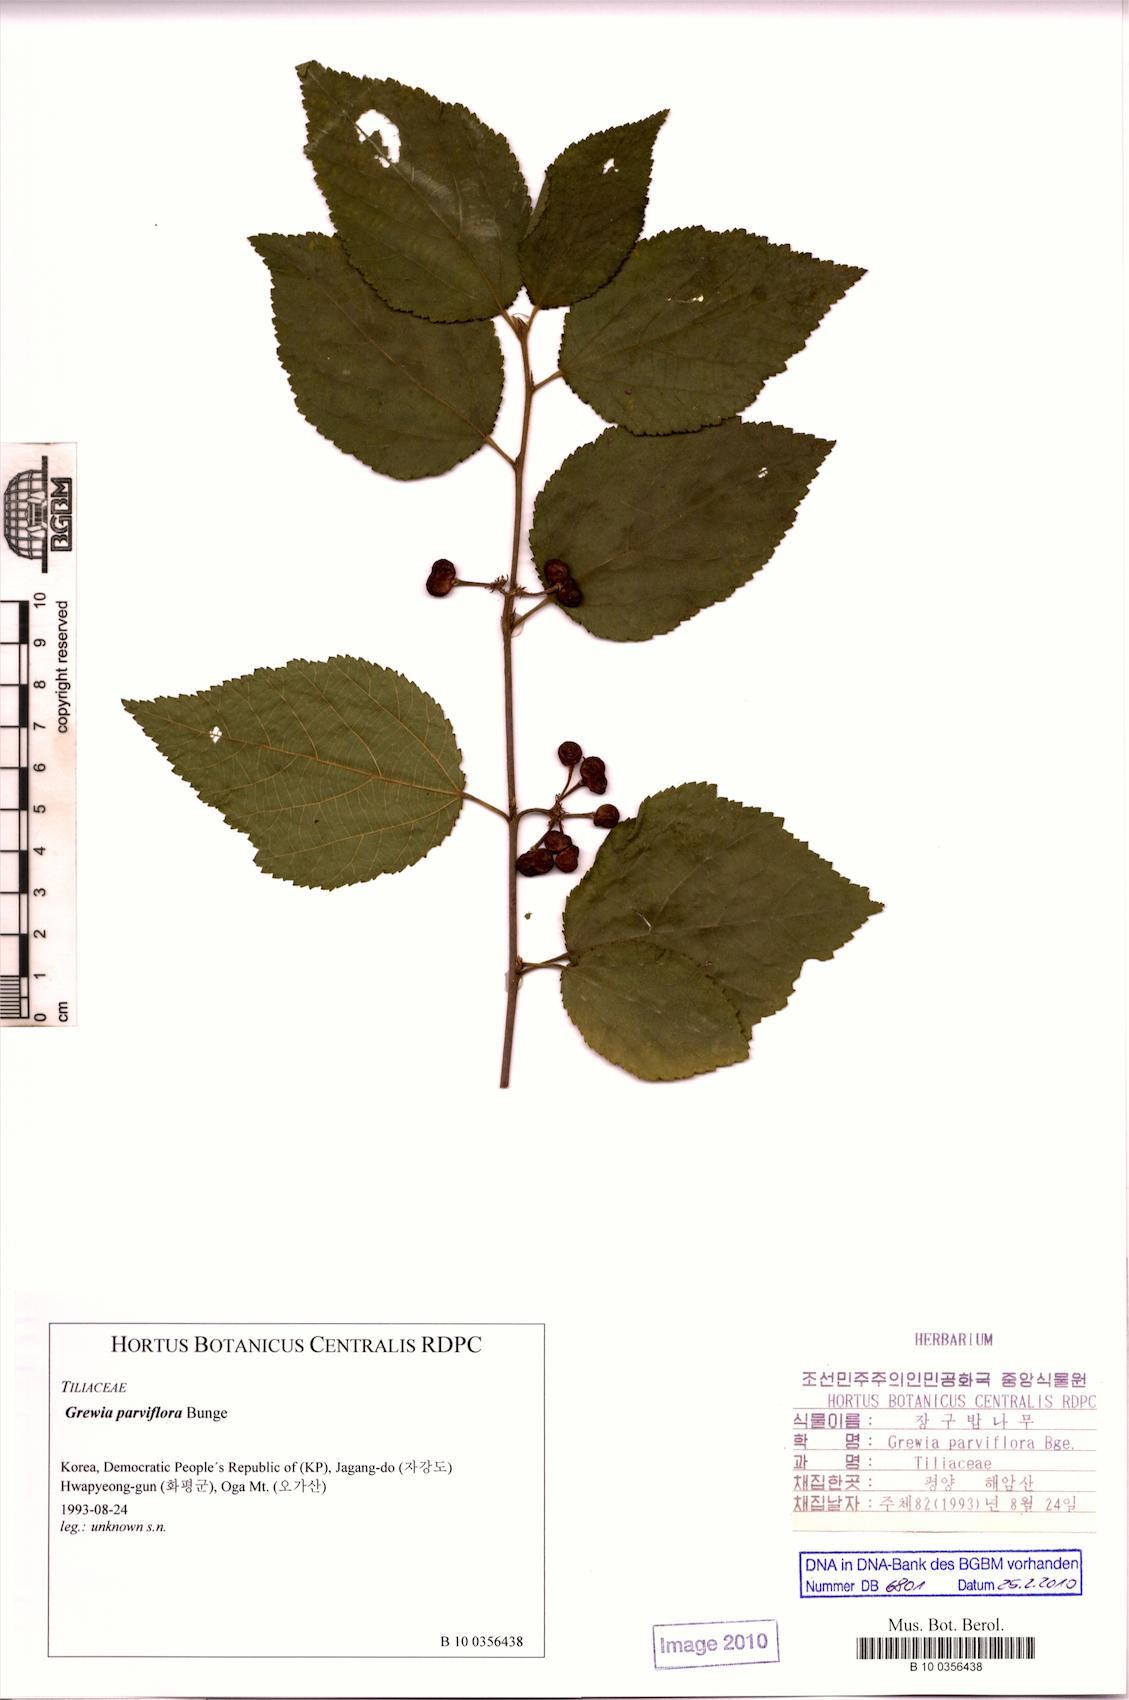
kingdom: Plantae
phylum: Tracheophyta
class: Magnoliopsida
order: Malvales
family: Malvaceae
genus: Grewia
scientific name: Grewia biloba
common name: Bilobed grewia
